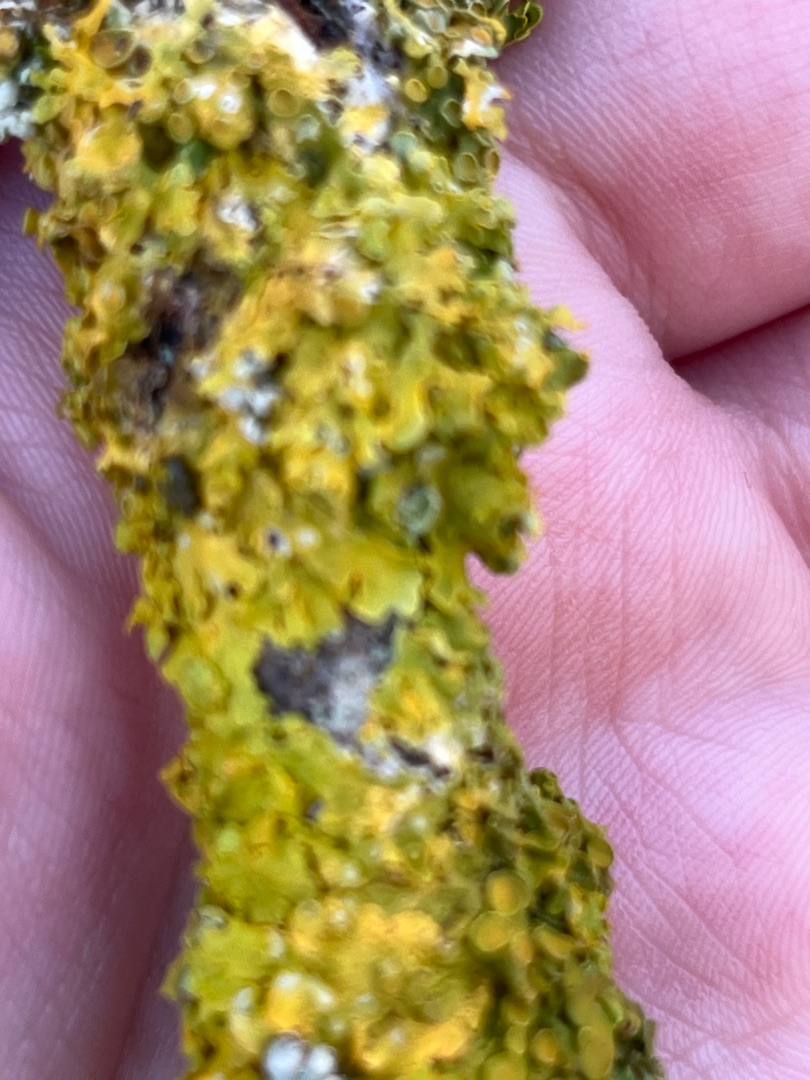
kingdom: Fungi
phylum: Ascomycota
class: Lecanoromycetes
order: Teloschistales
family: Teloschistaceae
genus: Xanthoria
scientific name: Xanthoria parietina
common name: Almindelig væggelav
